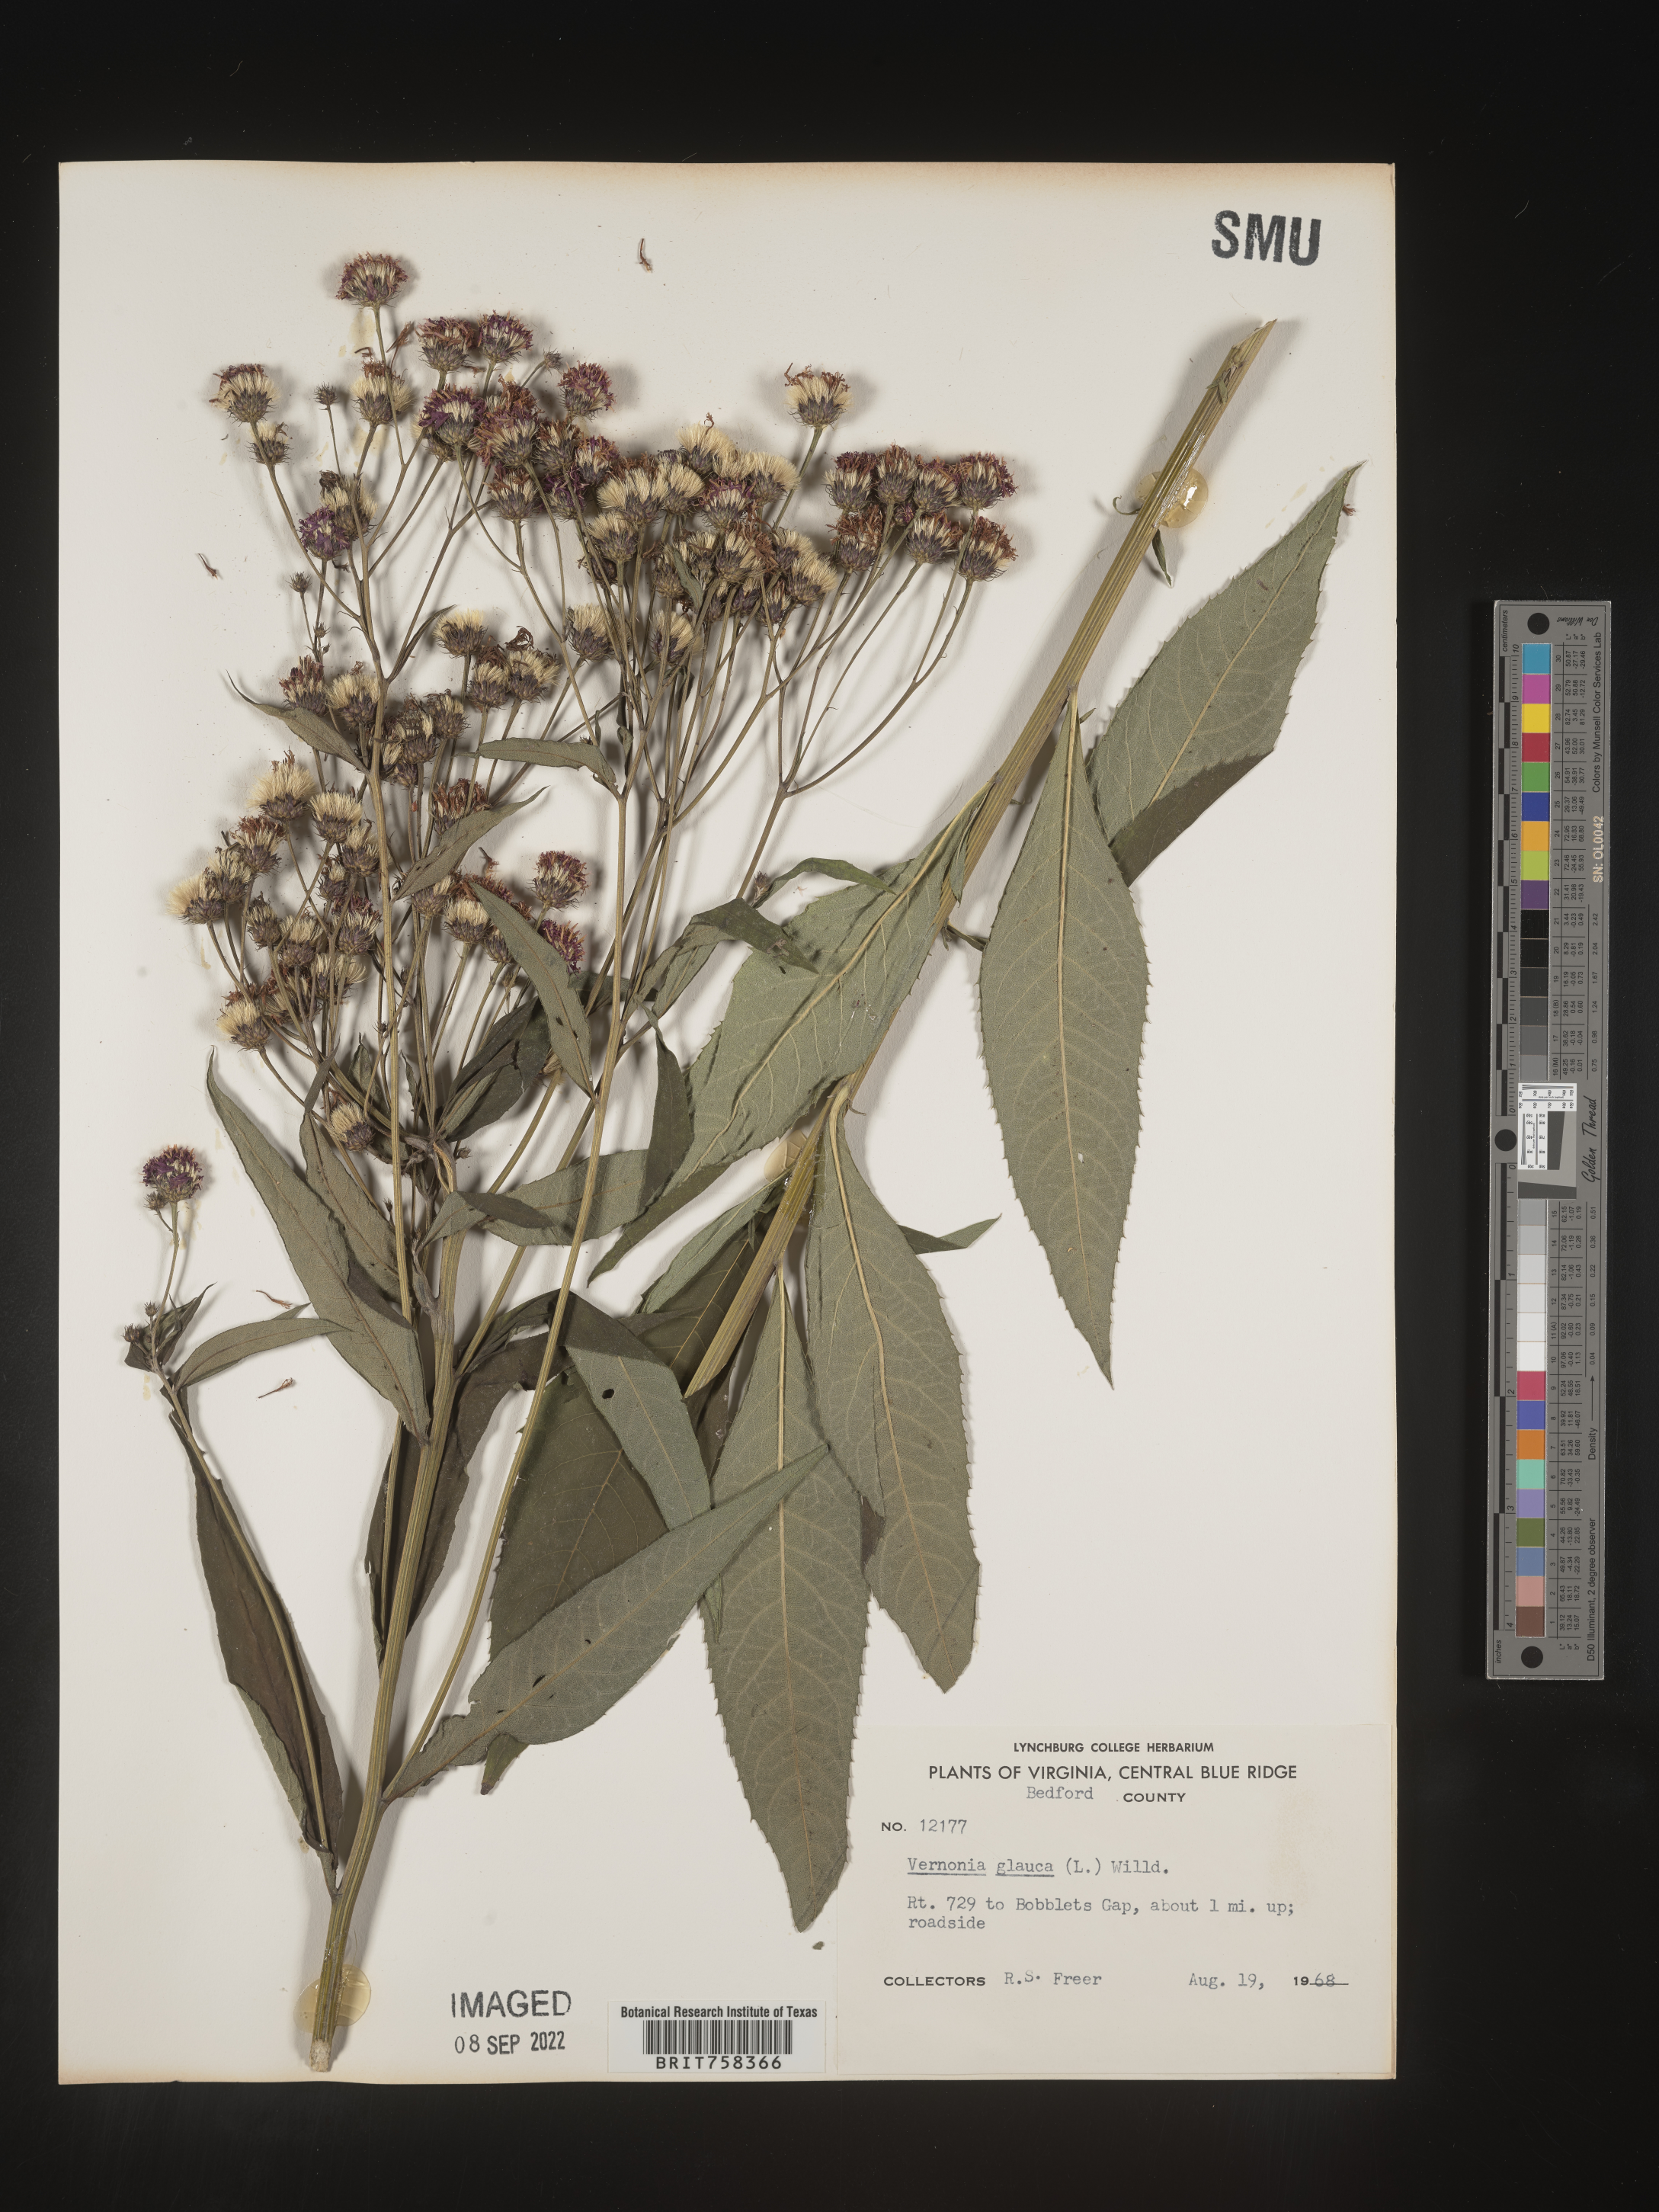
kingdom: Plantae
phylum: Tracheophyta
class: Magnoliopsida
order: Asterales
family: Asteraceae
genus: Vernonia
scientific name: Vernonia glauca
